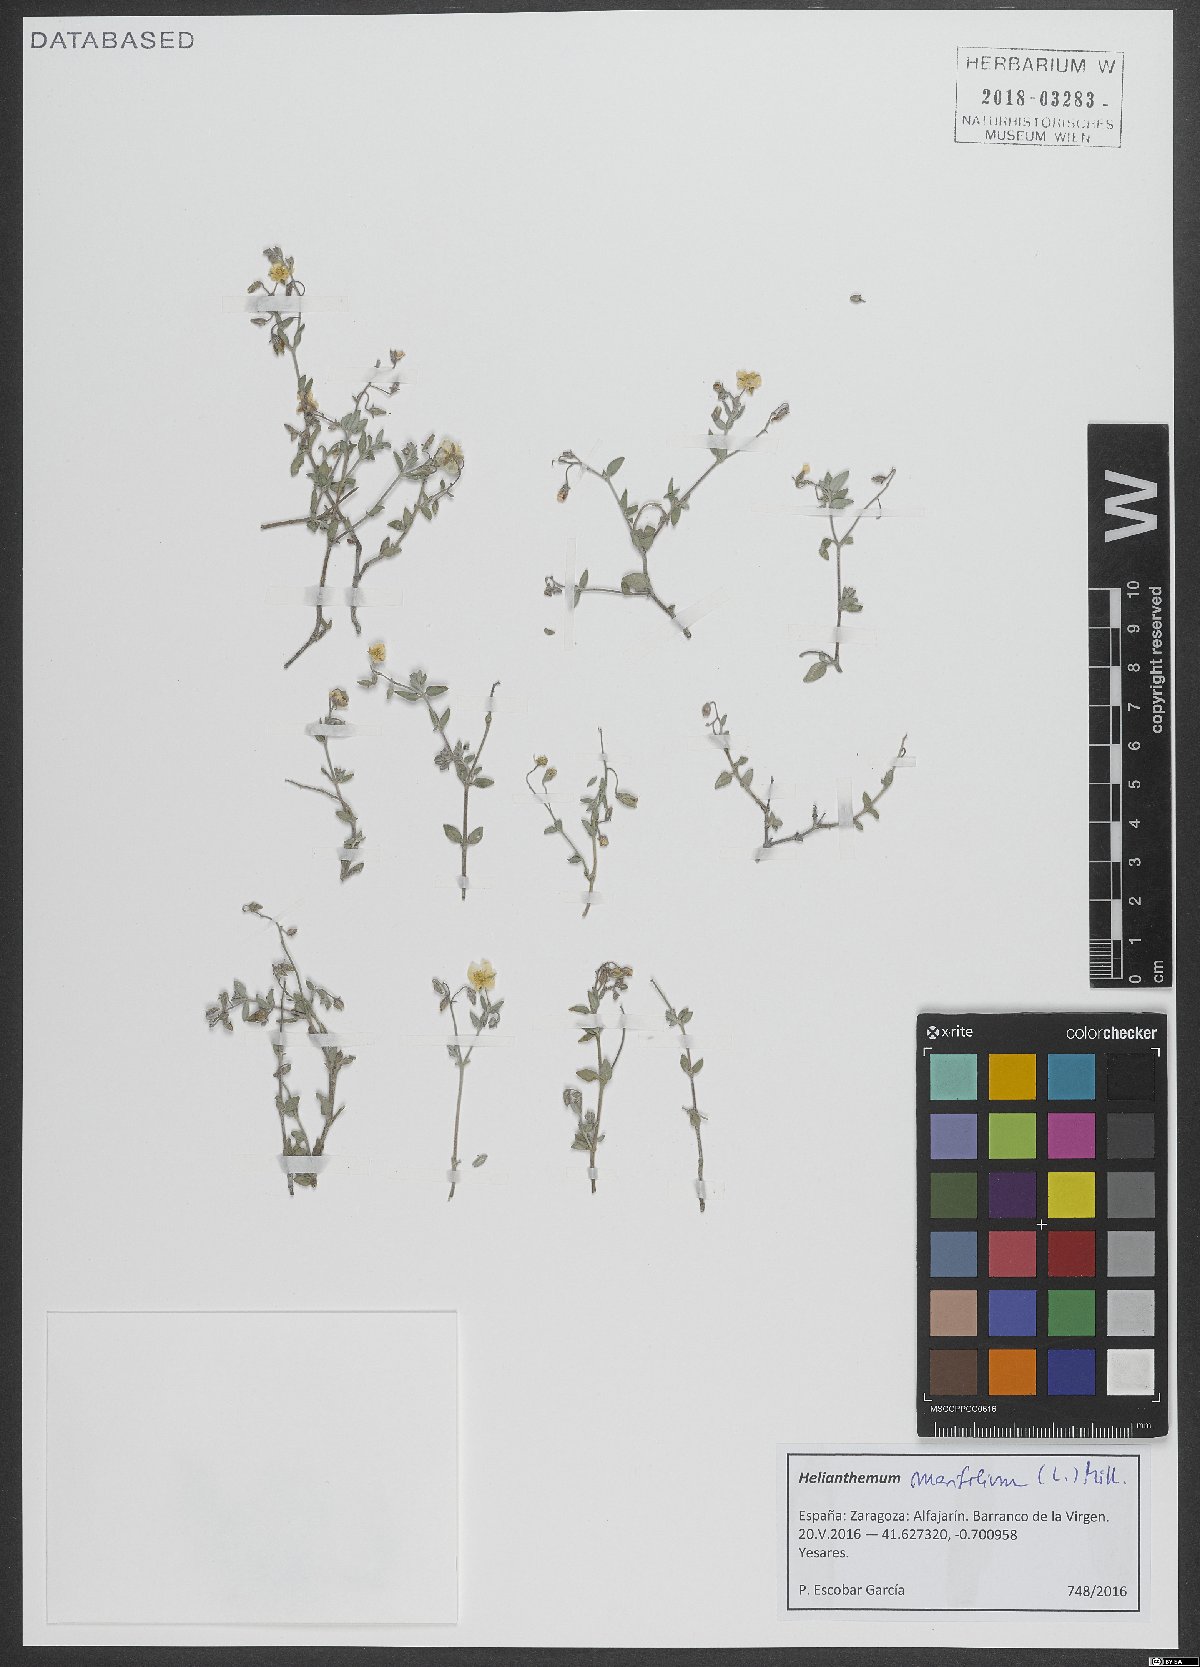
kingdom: Plantae
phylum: Tracheophyta
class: Magnoliopsida
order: Malvales
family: Cistaceae
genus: Helianthemum
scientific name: Helianthemum marifolium
